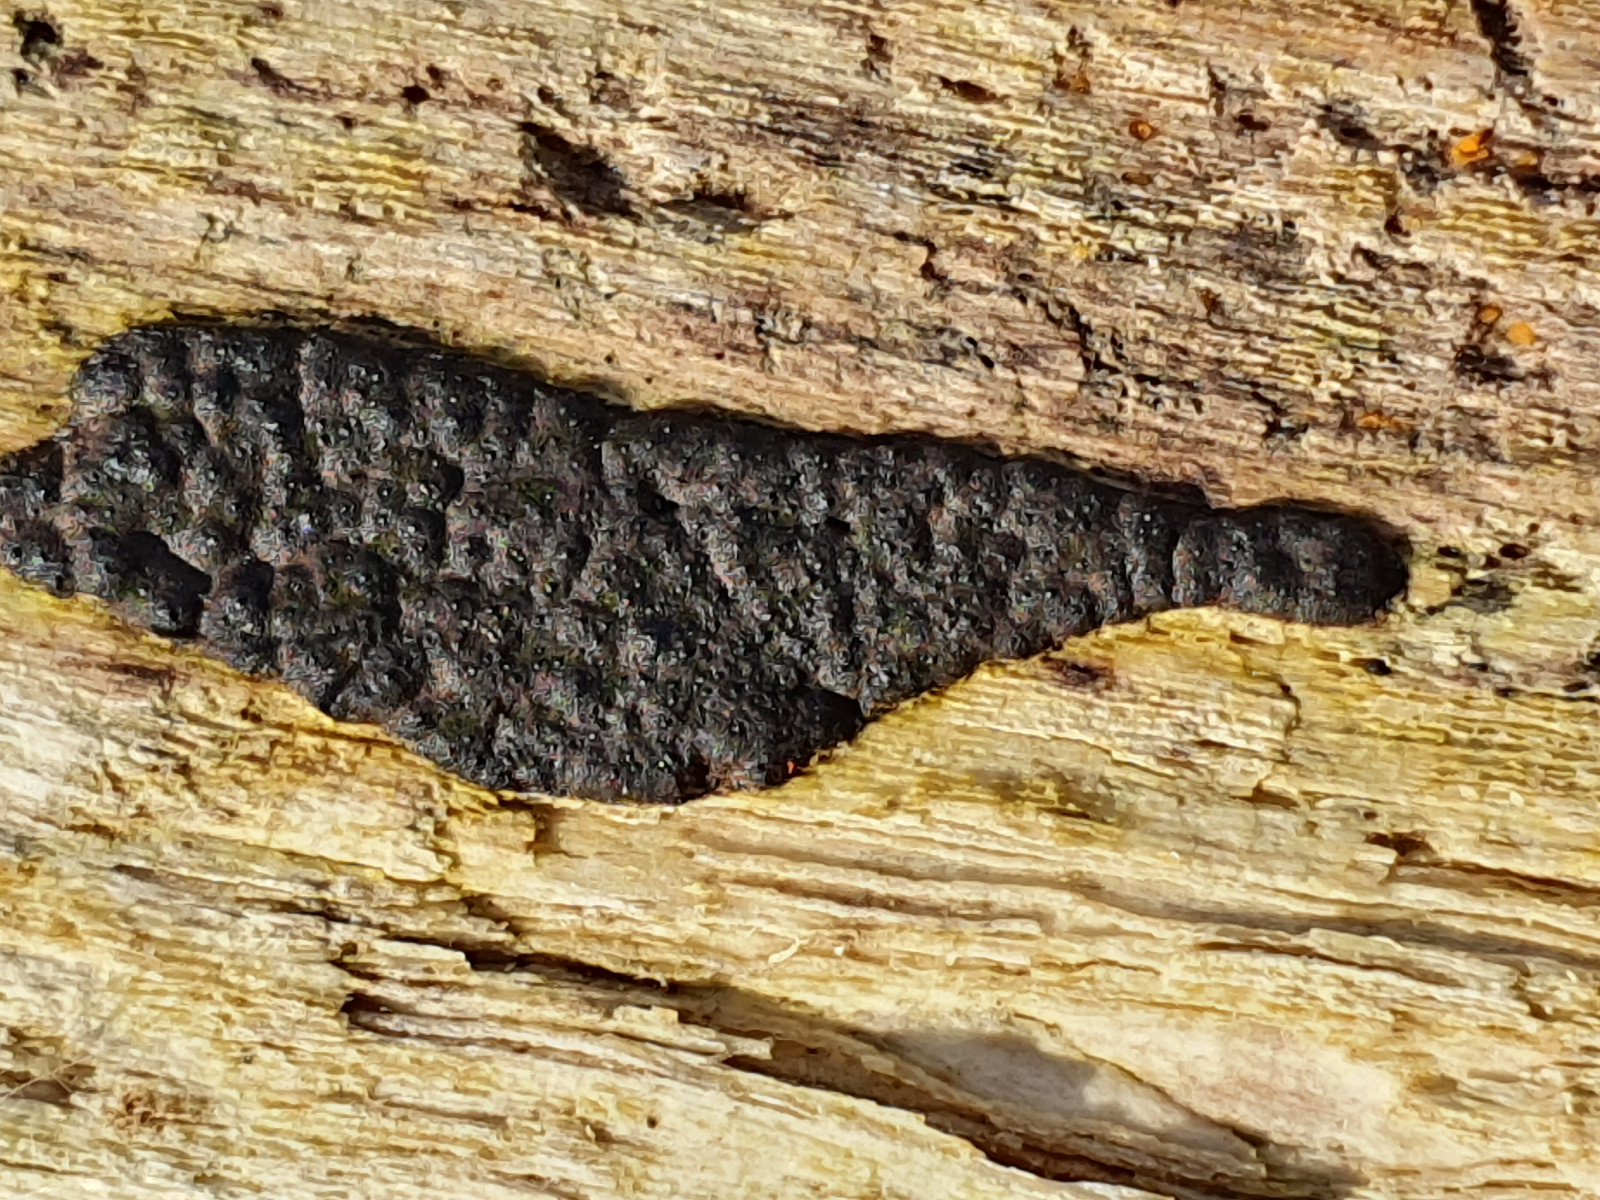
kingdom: Fungi
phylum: Ascomycota
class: Sordariomycetes
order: Xylariales
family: Xylariaceae
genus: Nemania
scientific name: Nemania
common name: kuldyne
